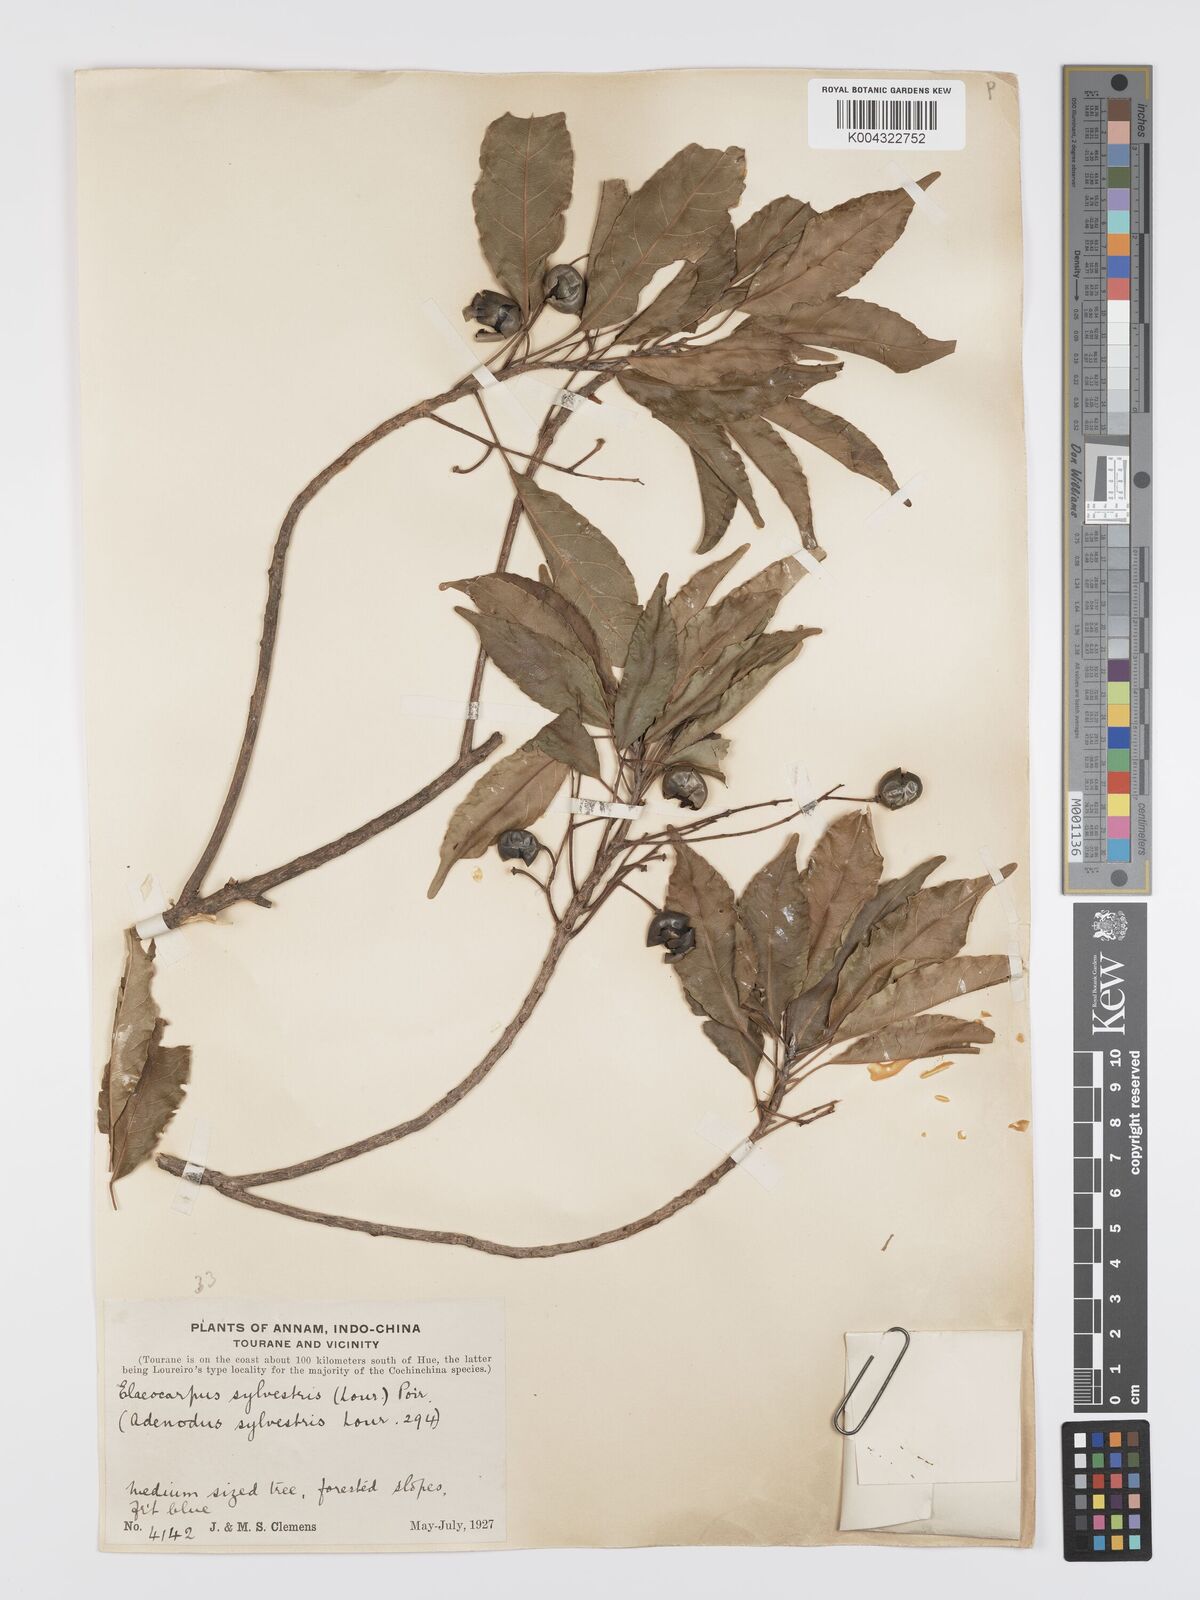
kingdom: Plantae
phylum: Tracheophyta
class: Magnoliopsida
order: Oxalidales
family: Elaeocarpaceae
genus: Elaeocarpus
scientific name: Elaeocarpus sylvestris
